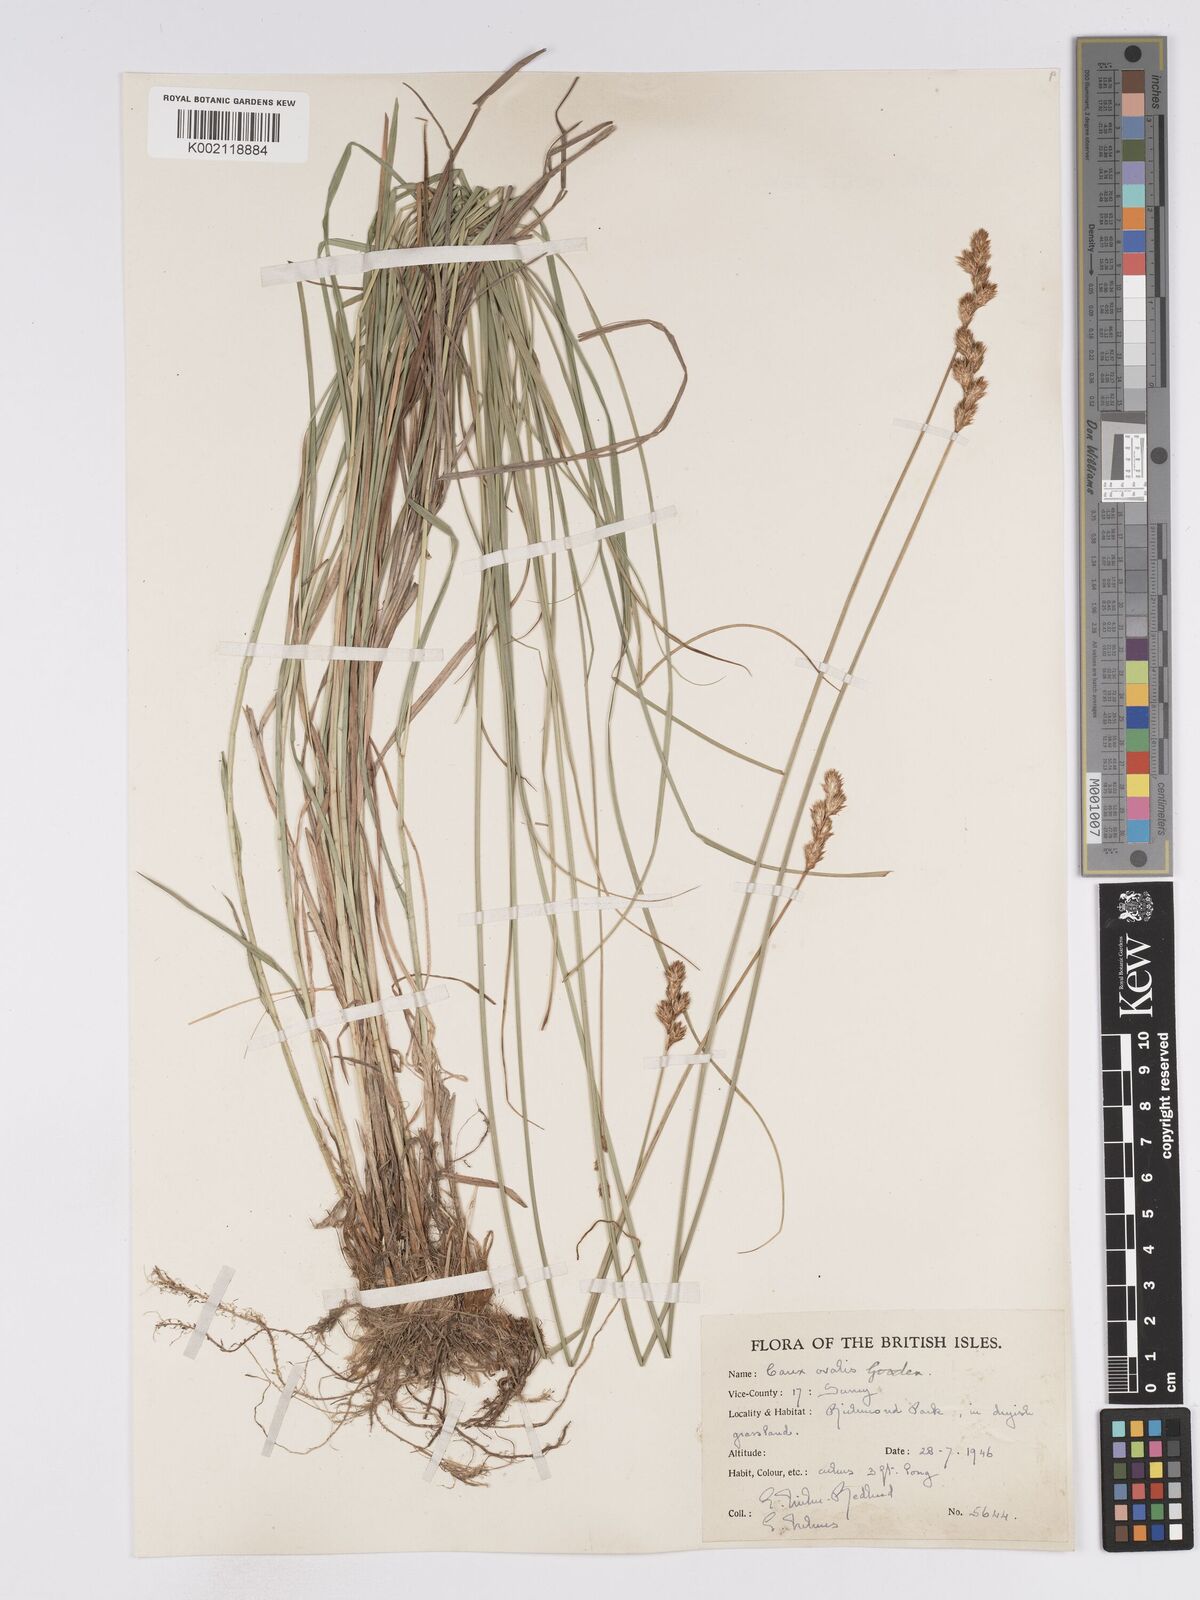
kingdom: Plantae
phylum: Tracheophyta
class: Liliopsida
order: Poales
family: Cyperaceae
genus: Carex
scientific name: Carex leporina
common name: Oval sedge
